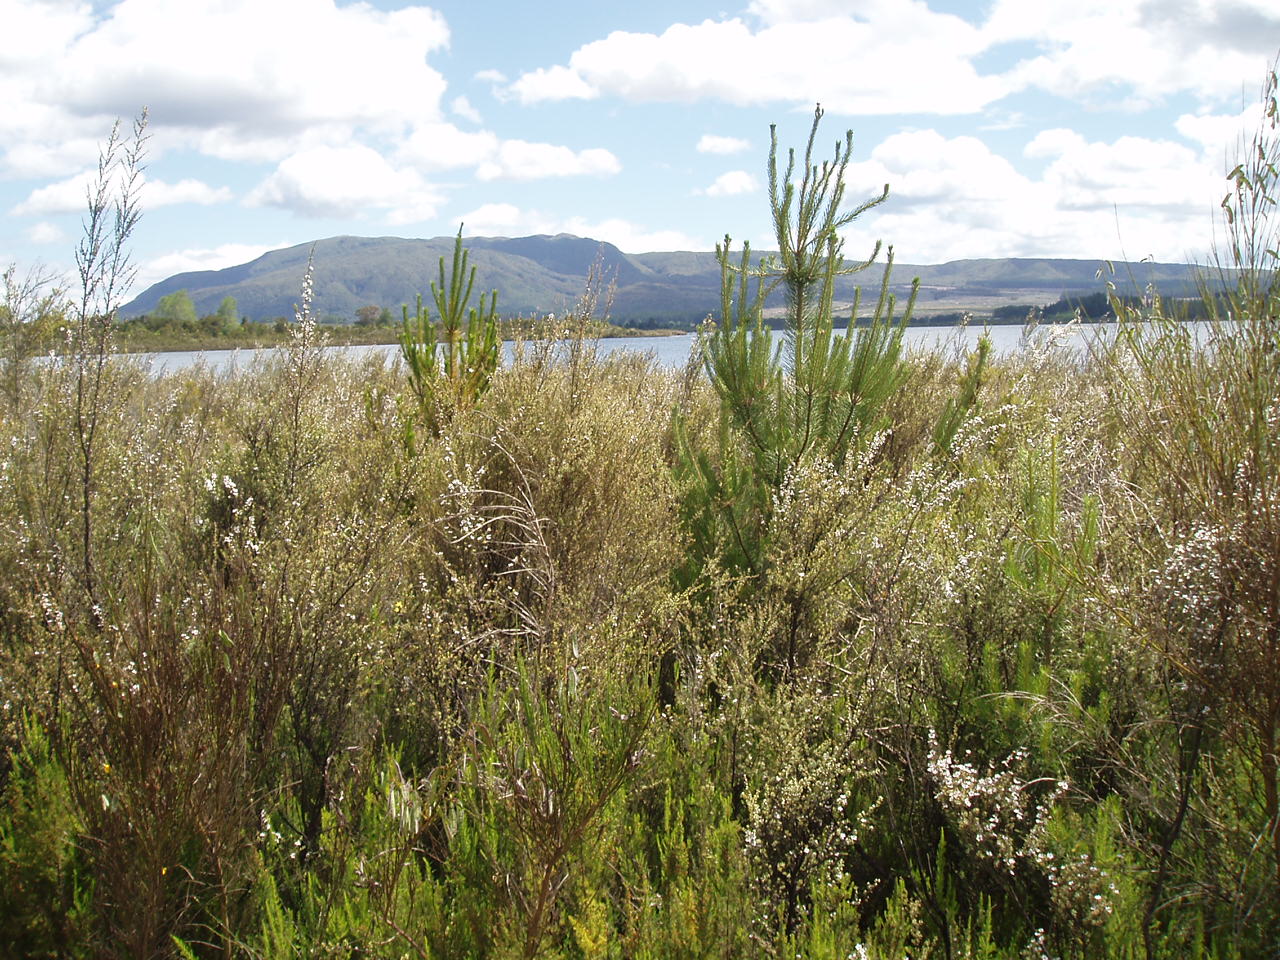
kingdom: Plantae
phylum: Tracheophyta
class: Pinopsida
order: Pinales
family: Pinaceae
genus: Pinus
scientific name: Pinus contorta
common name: Lodgepole pine
